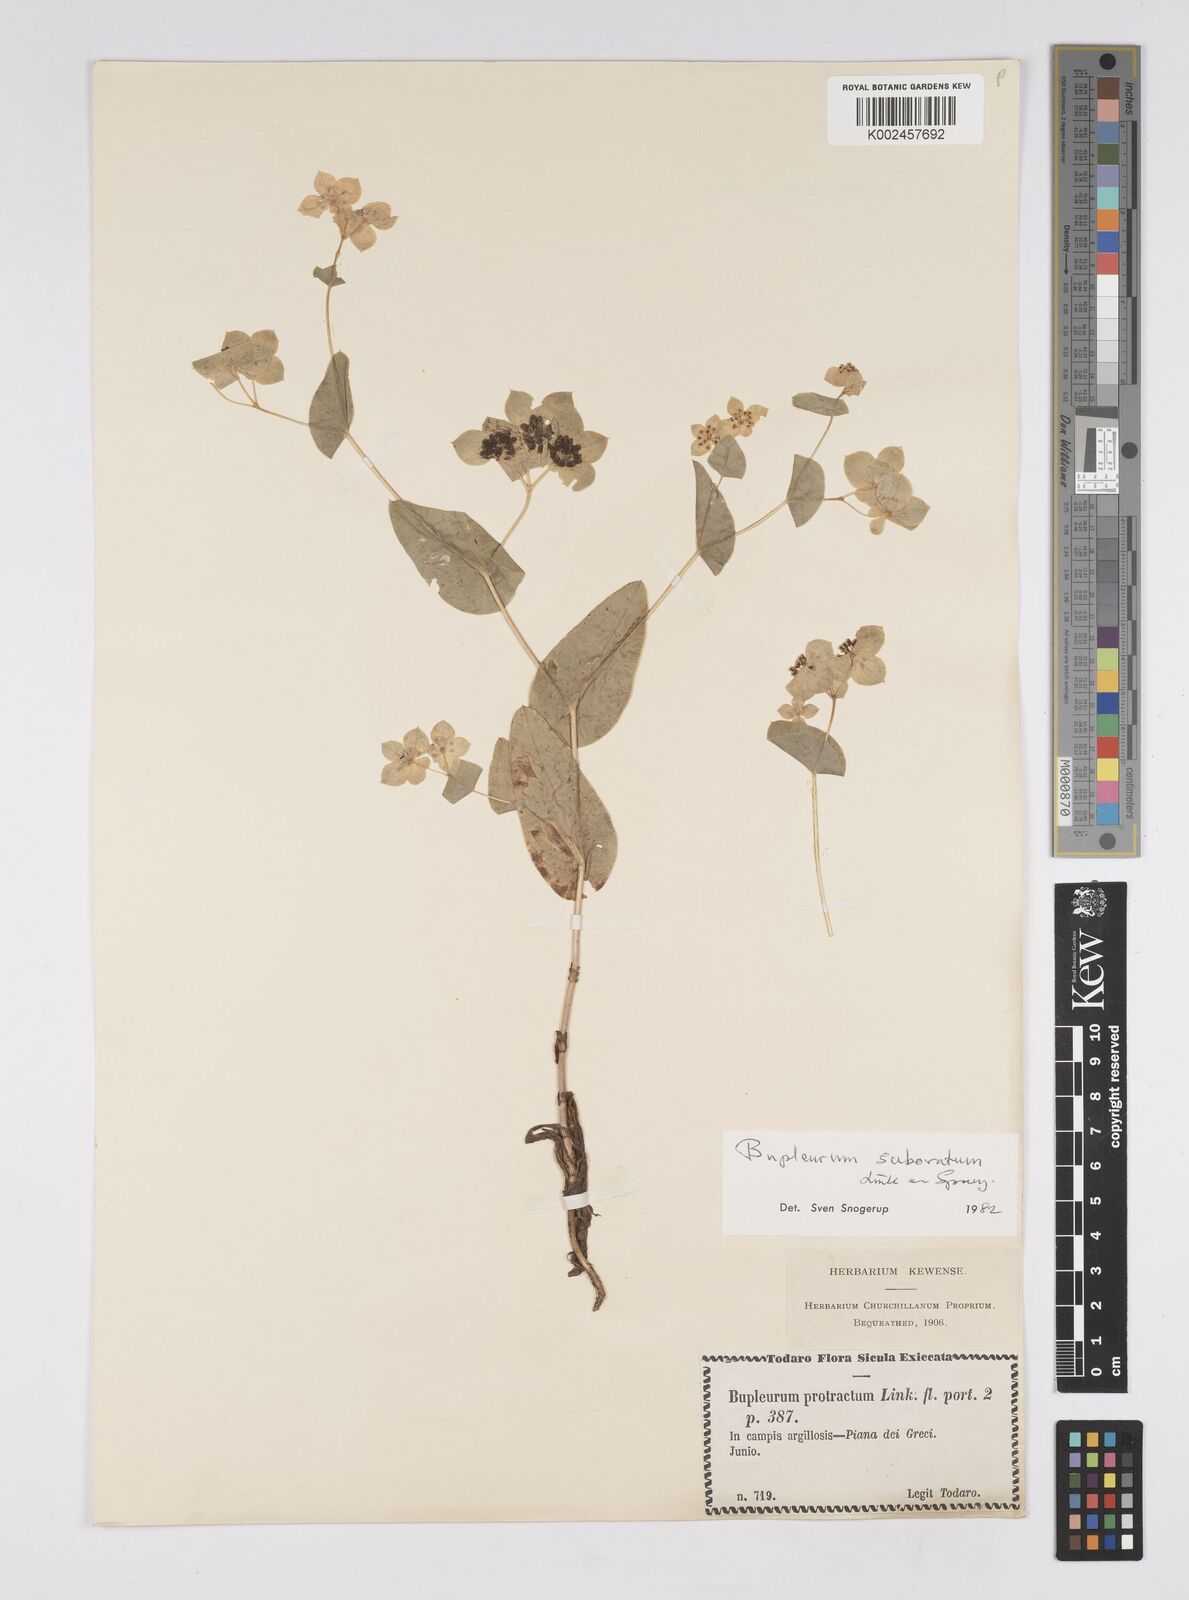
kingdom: Plantae
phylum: Tracheophyta
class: Magnoliopsida
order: Apiales
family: Apiaceae
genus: Bupleurum
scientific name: Bupleurum lancifolium
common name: False thorow-wax
